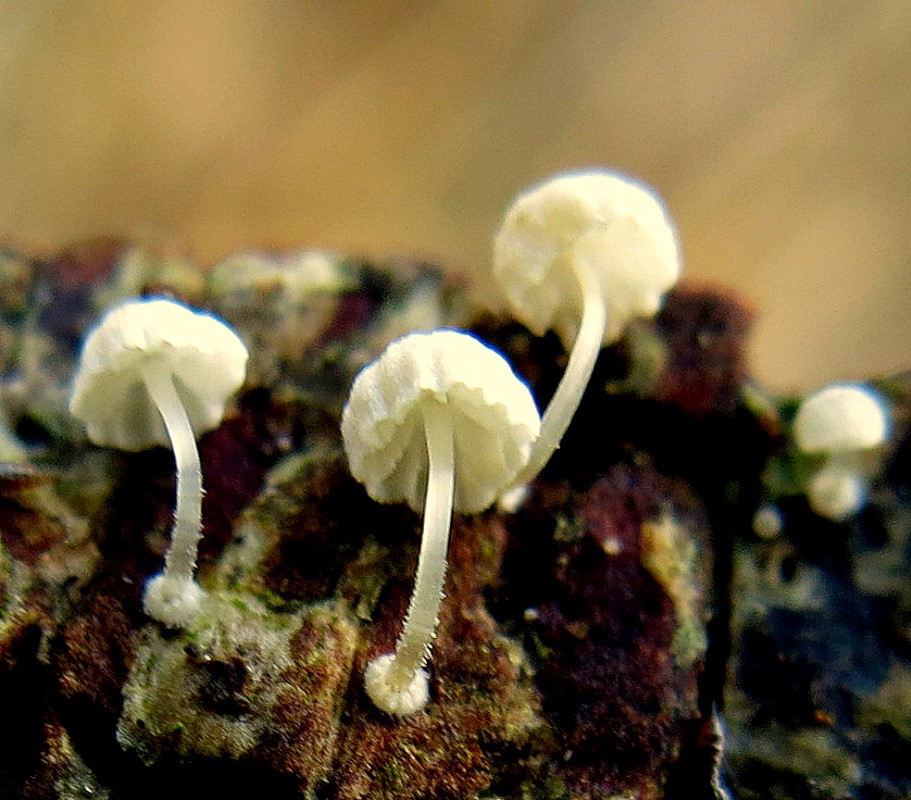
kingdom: Fungi
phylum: Basidiomycota
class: Agaricomycetes
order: Agaricales
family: Mycenaceae
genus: Mycena
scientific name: Mycena clavularis
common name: dunskivet huesvamp
